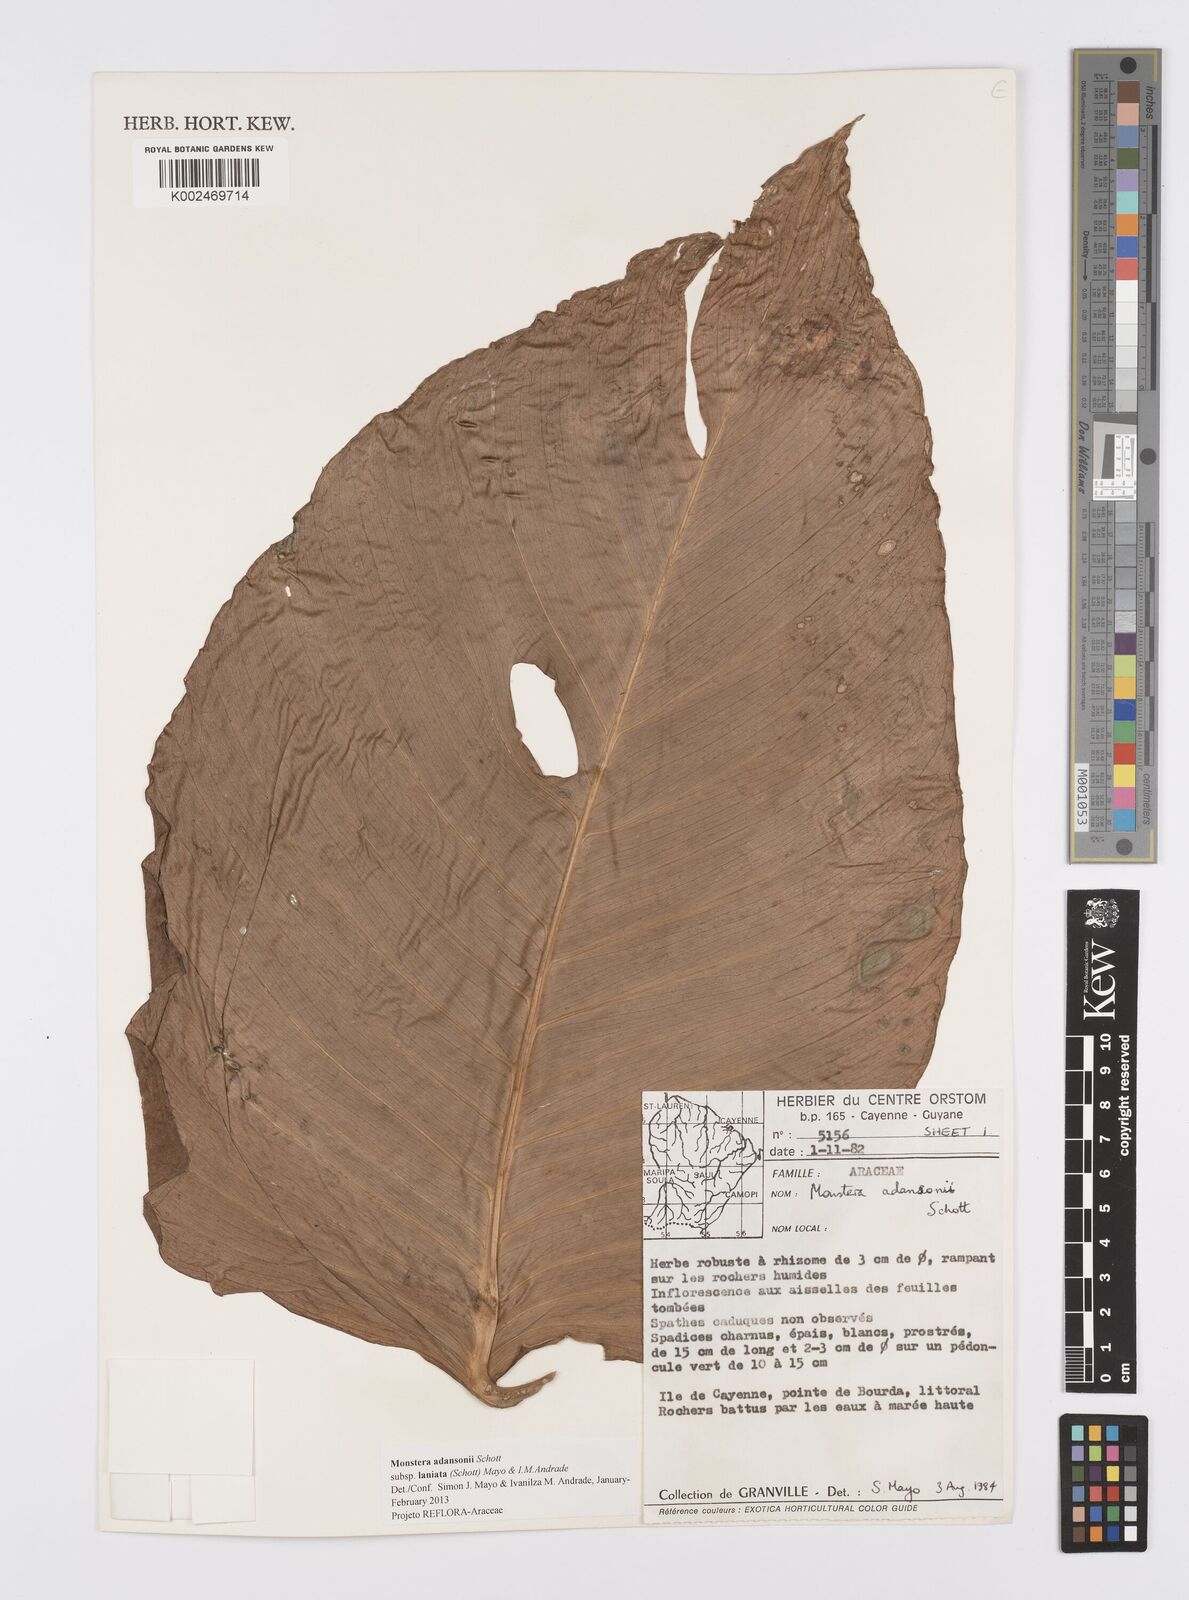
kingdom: Plantae
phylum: Tracheophyta
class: Liliopsida
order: Alismatales
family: Araceae
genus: Monstera
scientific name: Monstera adansonii
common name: Tarovine
